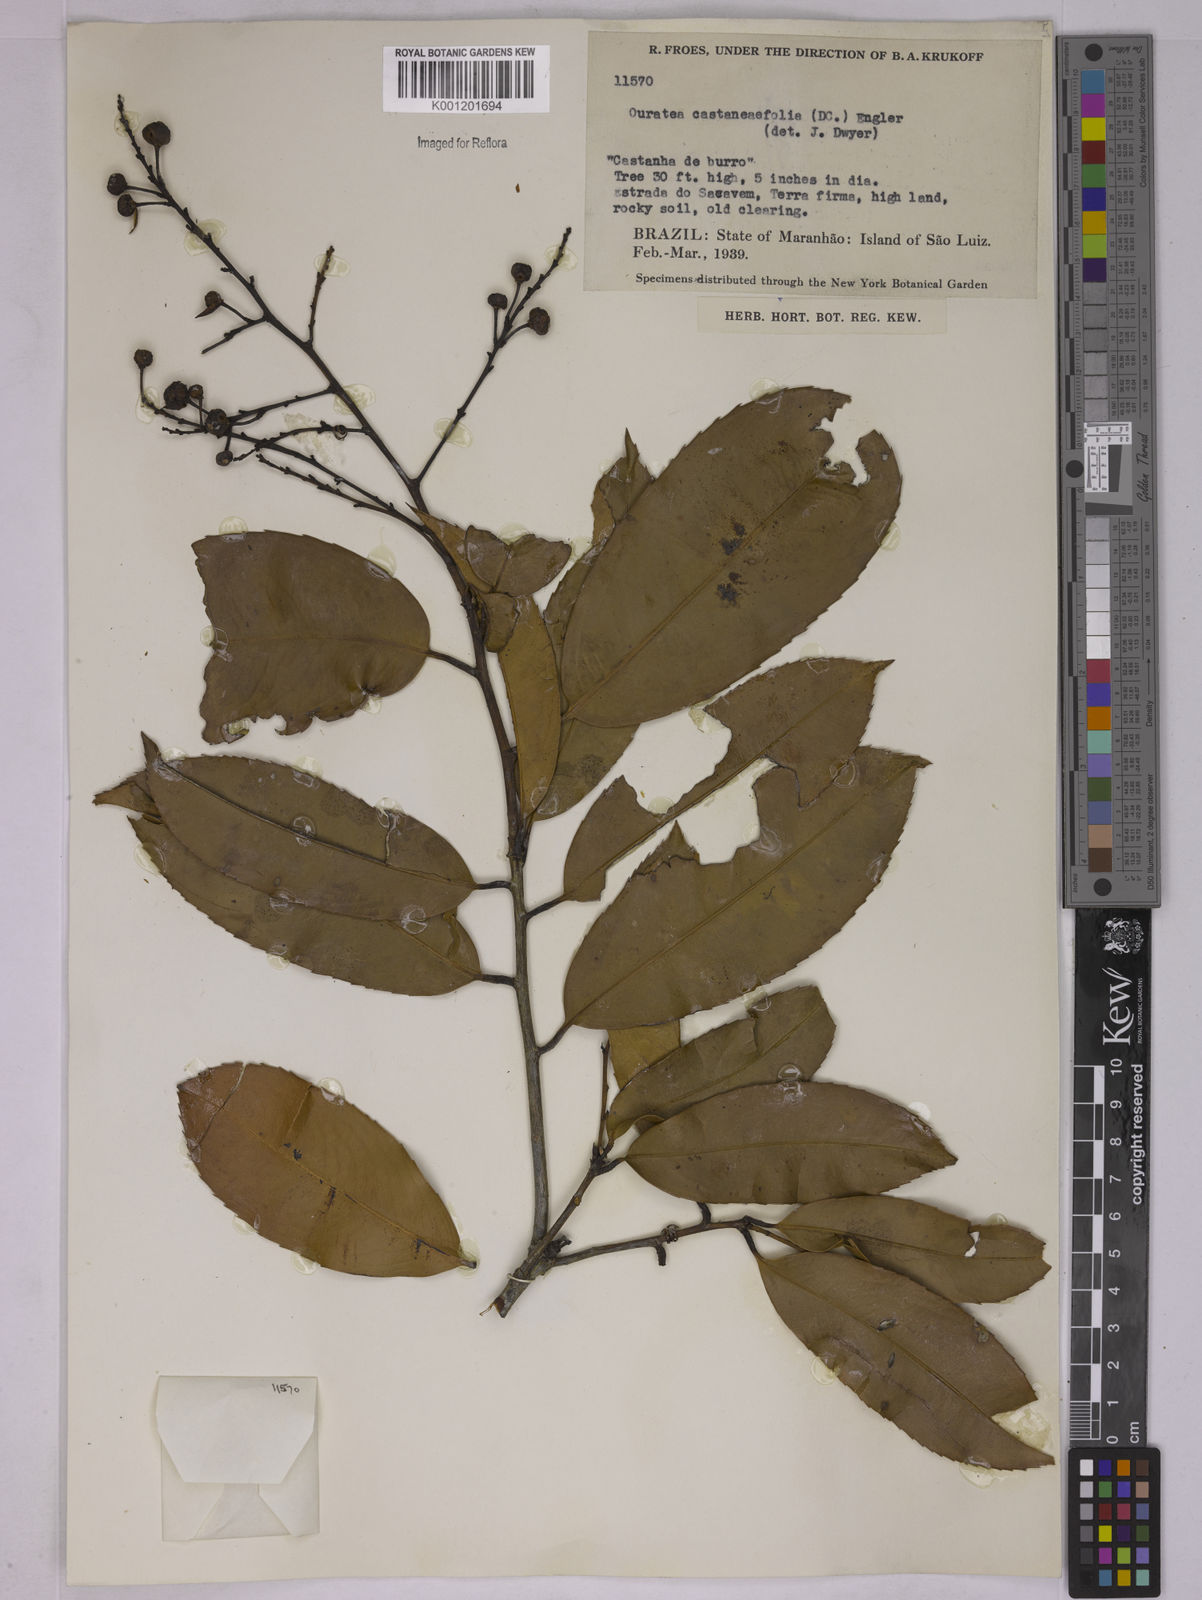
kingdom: Plantae
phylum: Tracheophyta
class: Magnoliopsida
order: Malpighiales
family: Ochnaceae
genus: Ouratea
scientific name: Ouratea castaneifolia
